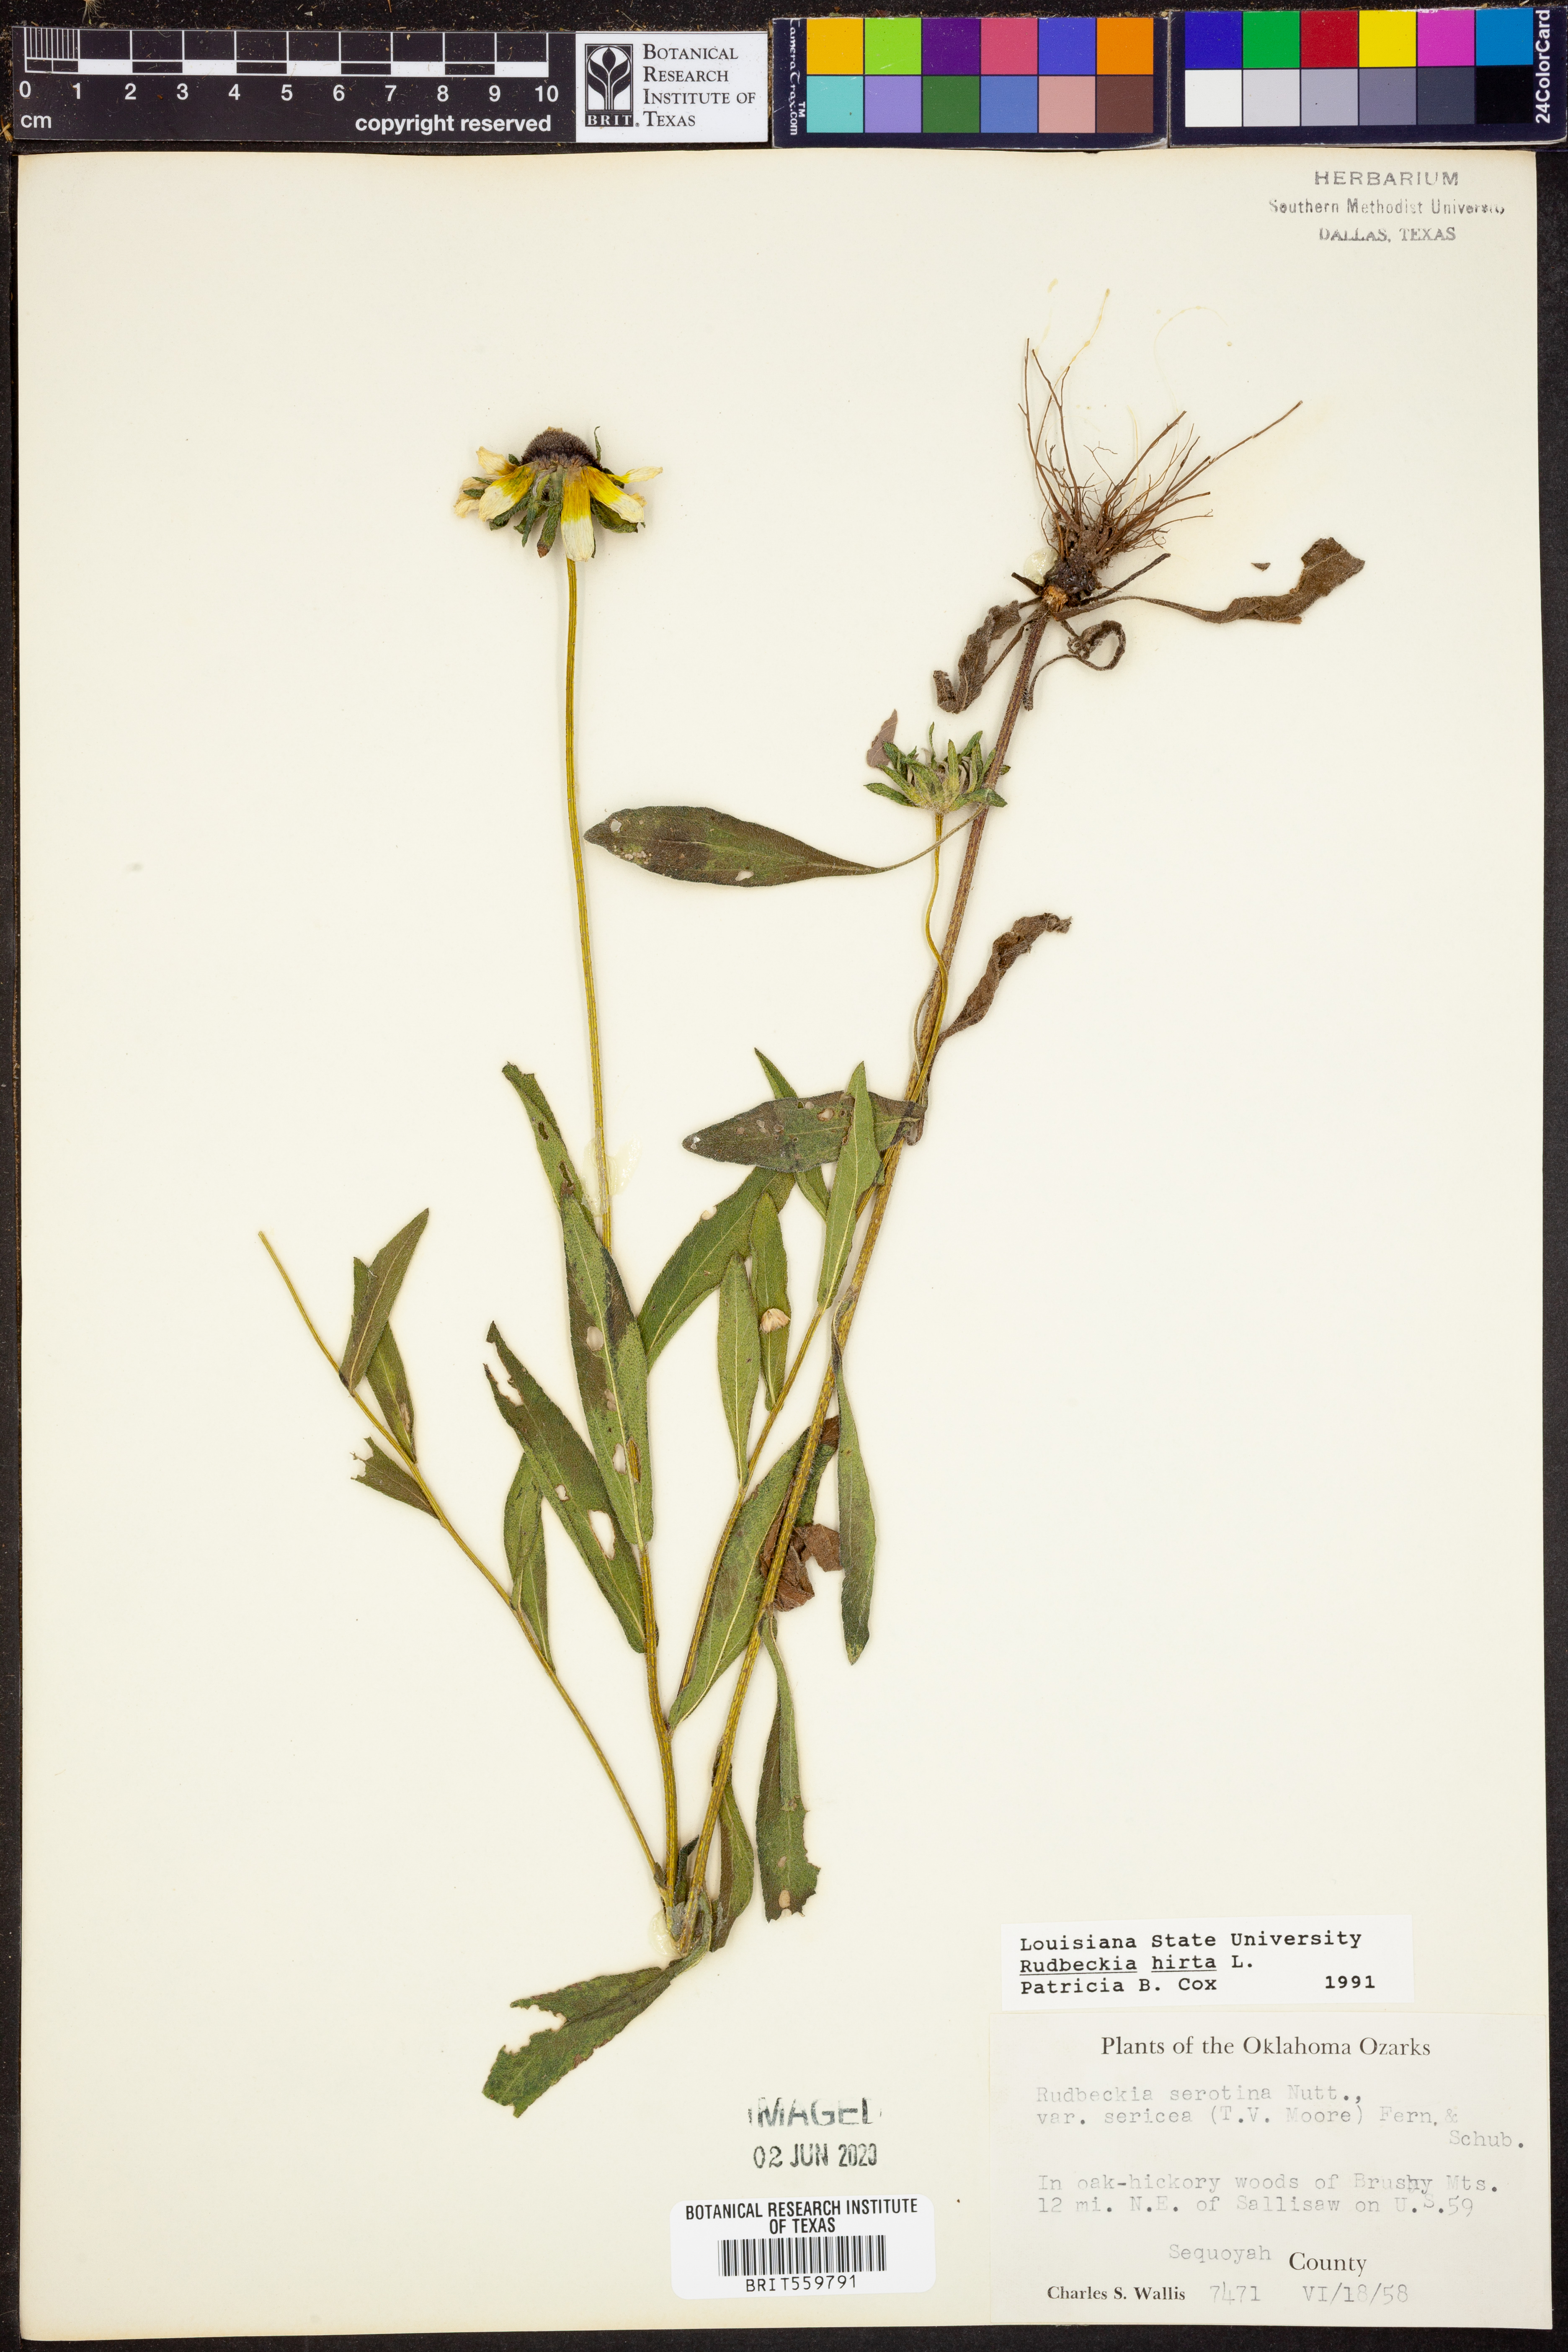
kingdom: Plantae
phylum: Tracheophyta
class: Magnoliopsida
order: Asterales
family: Asteraceae
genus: Rudbeckia
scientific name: Rudbeckia hirta
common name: Black-eyed-susan
